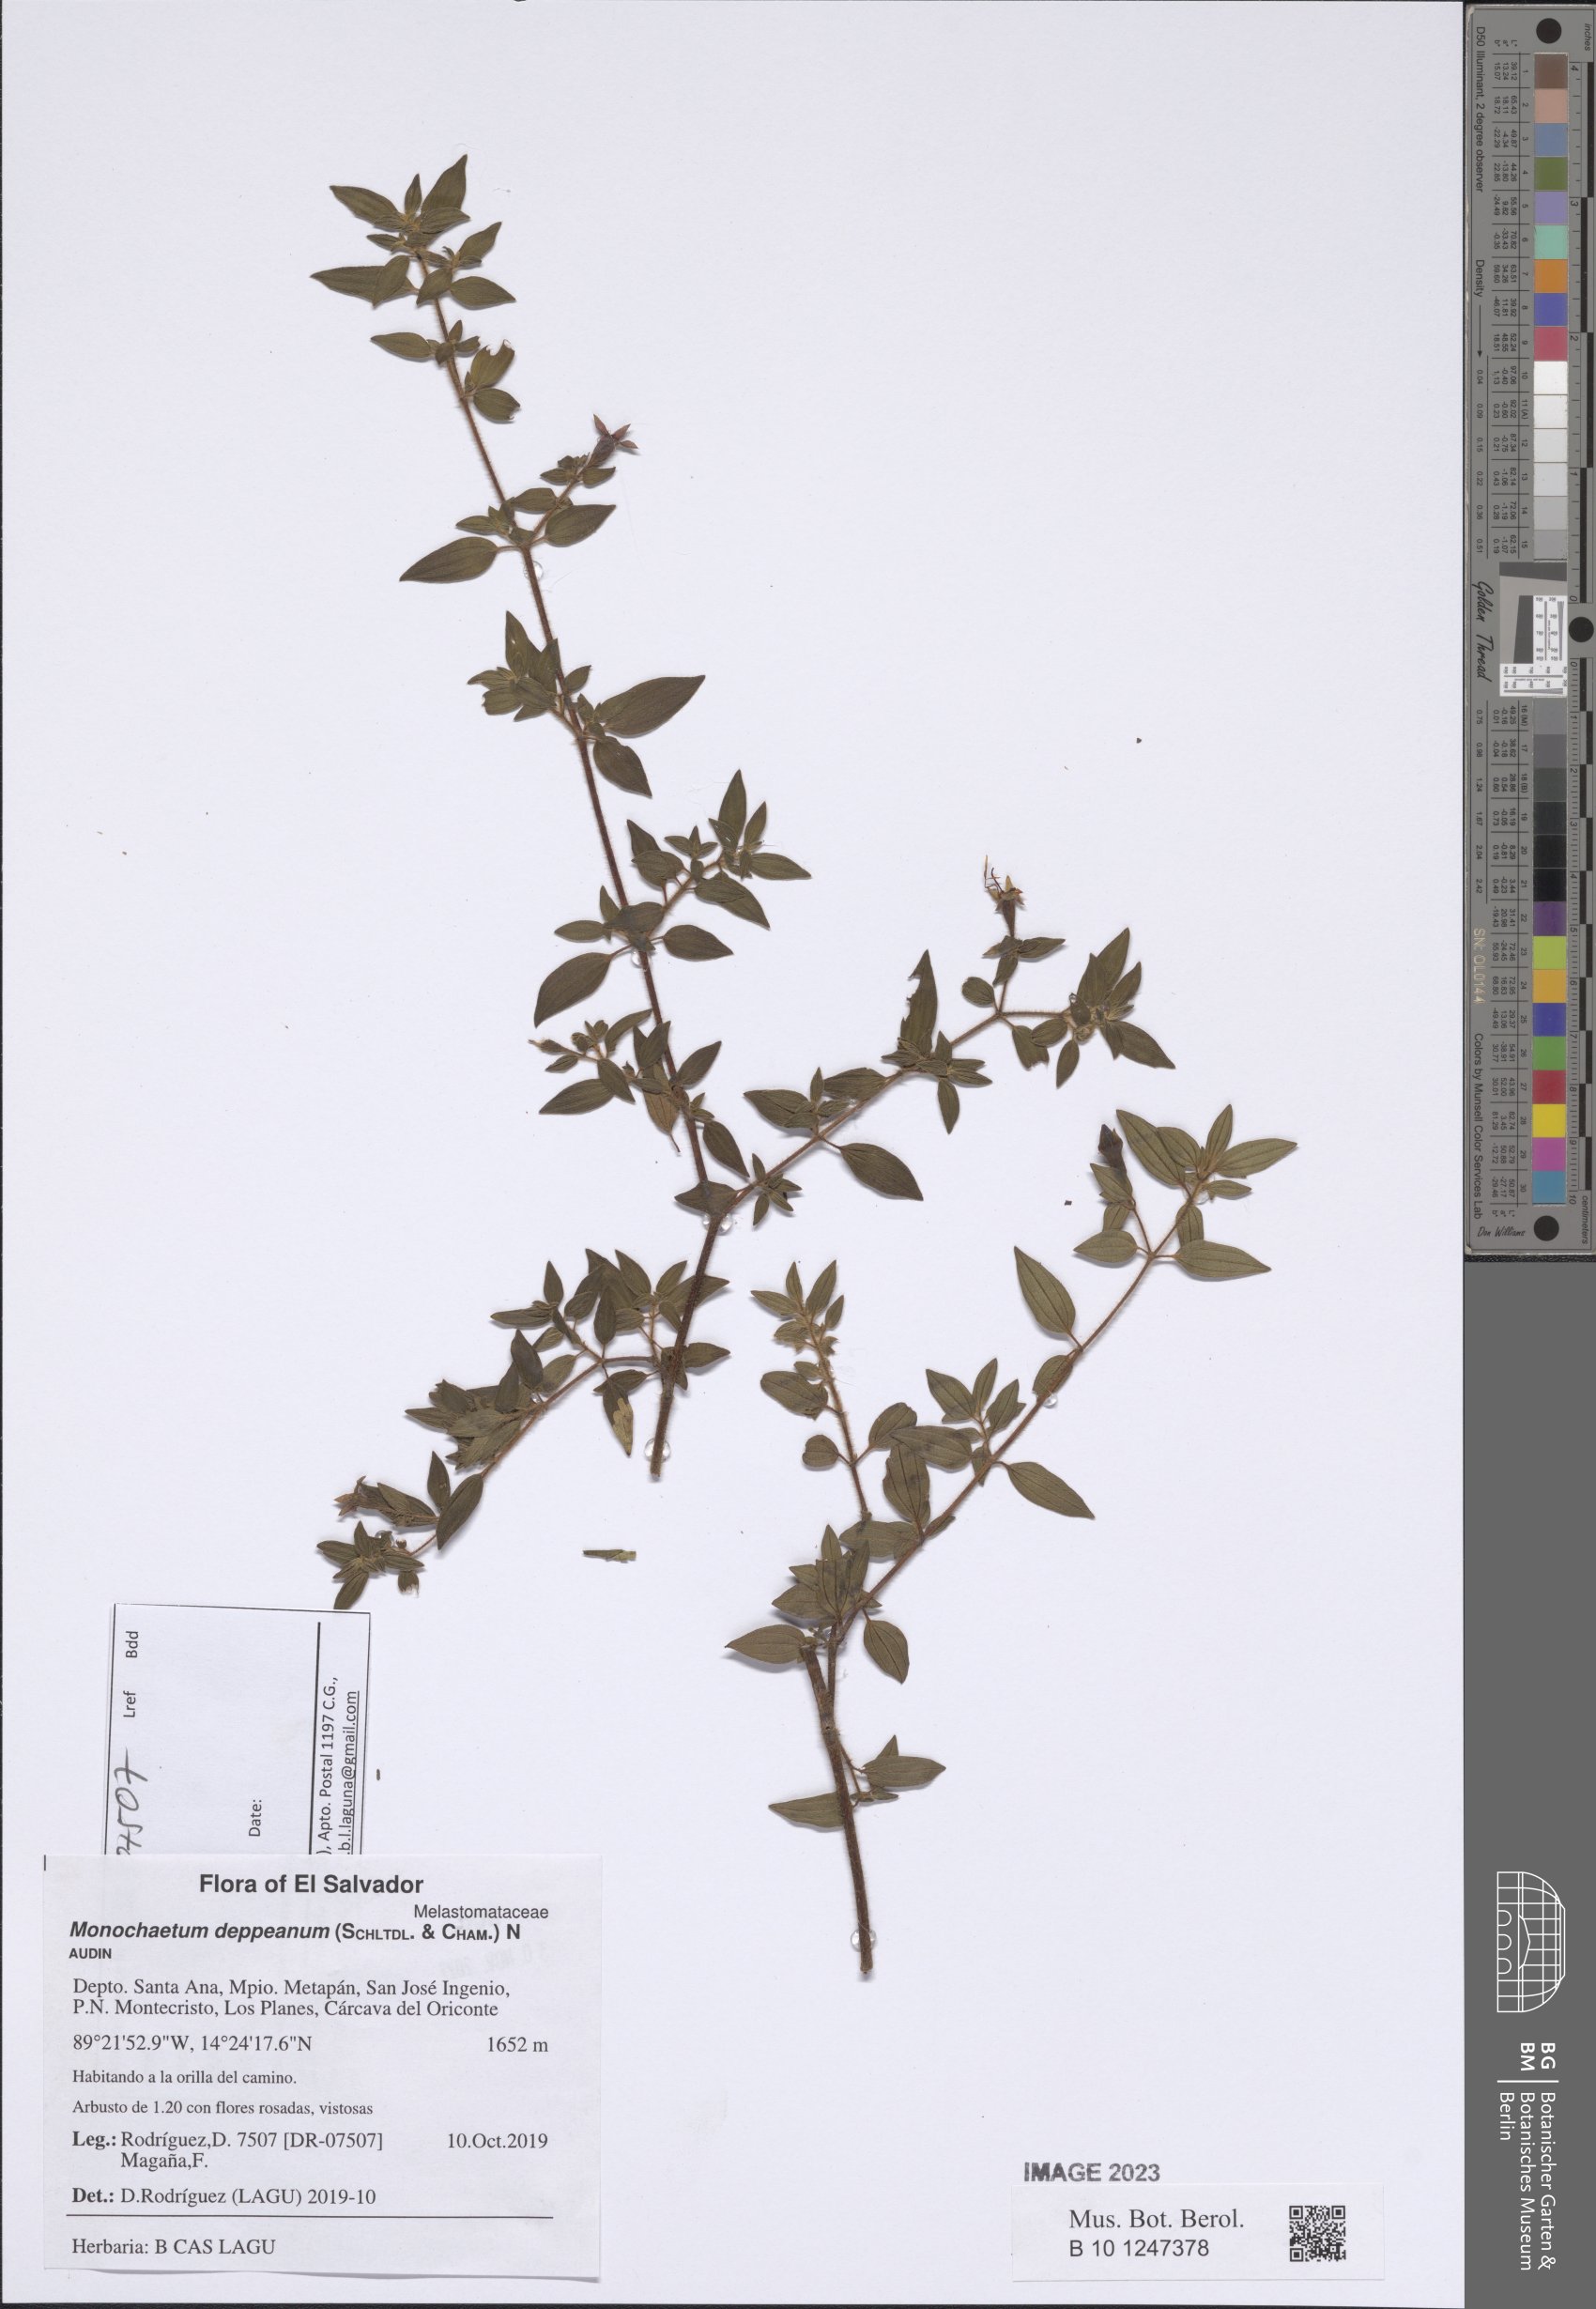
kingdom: Plantae
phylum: Tracheophyta
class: Magnoliopsida
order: Myrtales
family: Melastomataceae
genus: Monochaetum
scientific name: Monochaetum deppeanum
